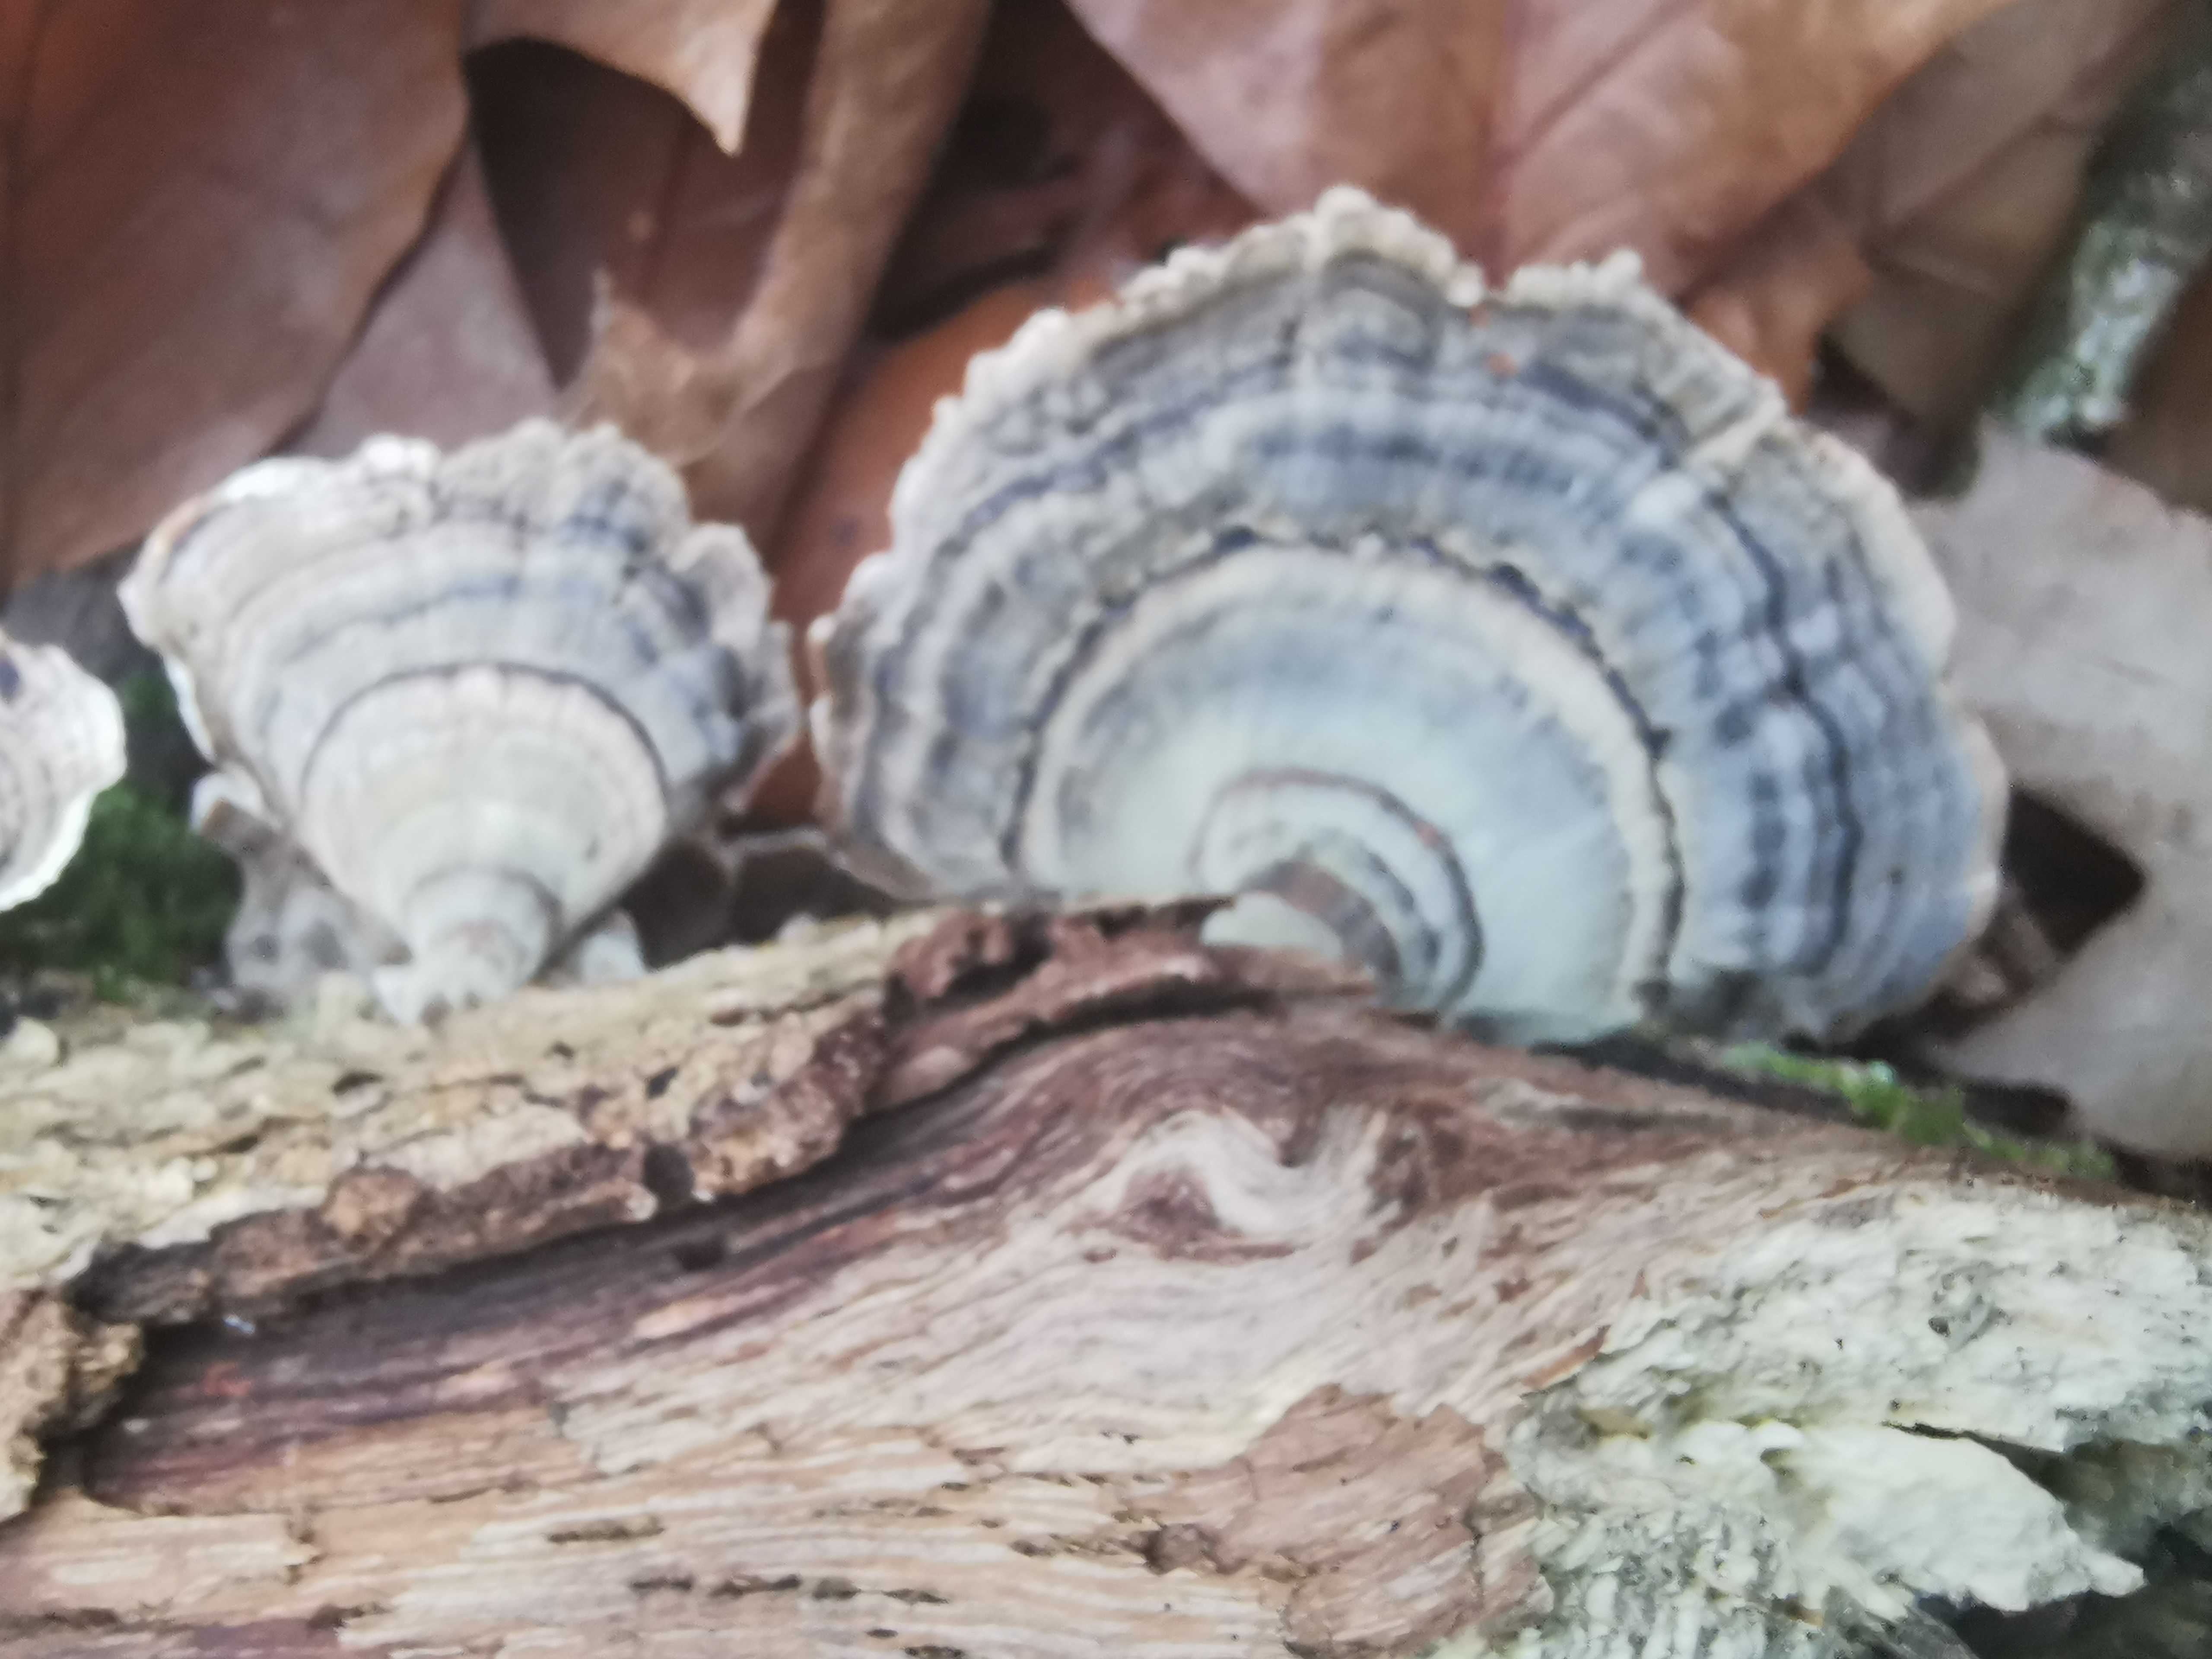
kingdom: Fungi
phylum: Basidiomycota
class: Agaricomycetes
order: Polyporales
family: Polyporaceae
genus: Trametes
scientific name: Trametes versicolor
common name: broget læderporesvamp
